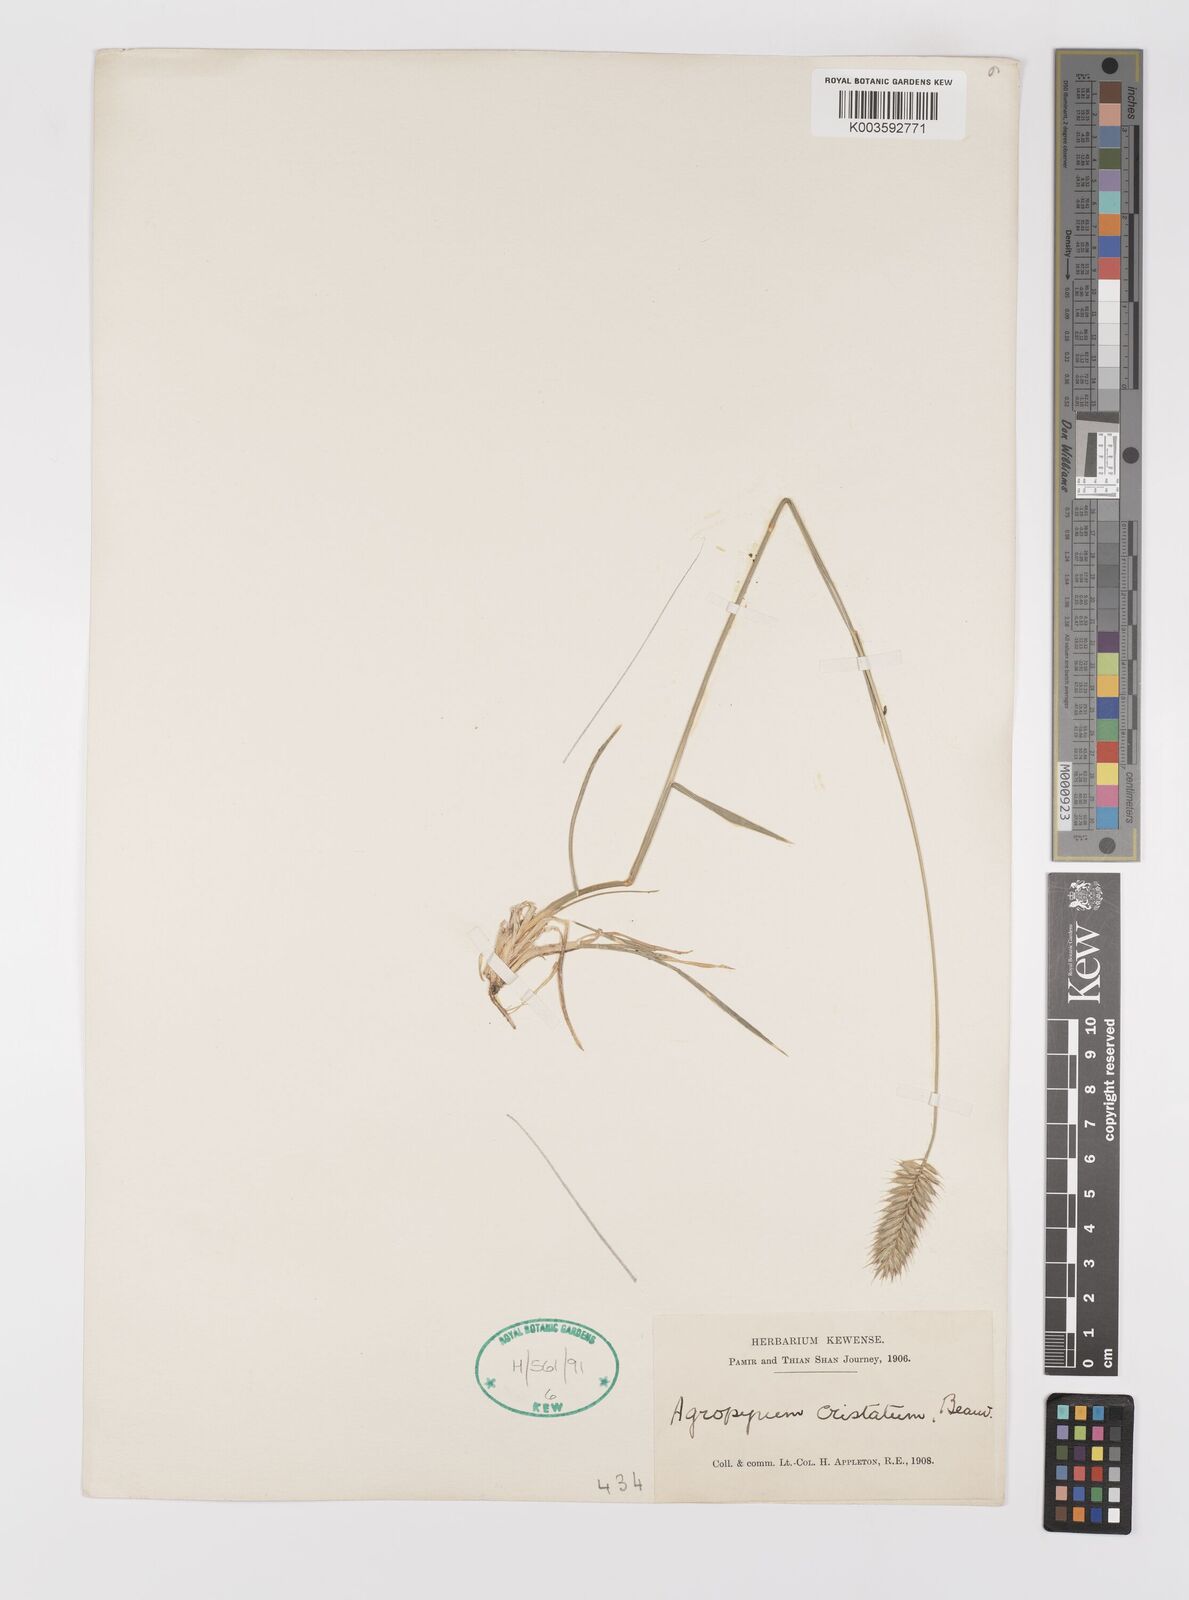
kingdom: Plantae
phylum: Tracheophyta
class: Liliopsida
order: Poales
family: Poaceae
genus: Agropyron
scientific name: Agropyron cristatum
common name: Crested wheatgrass
